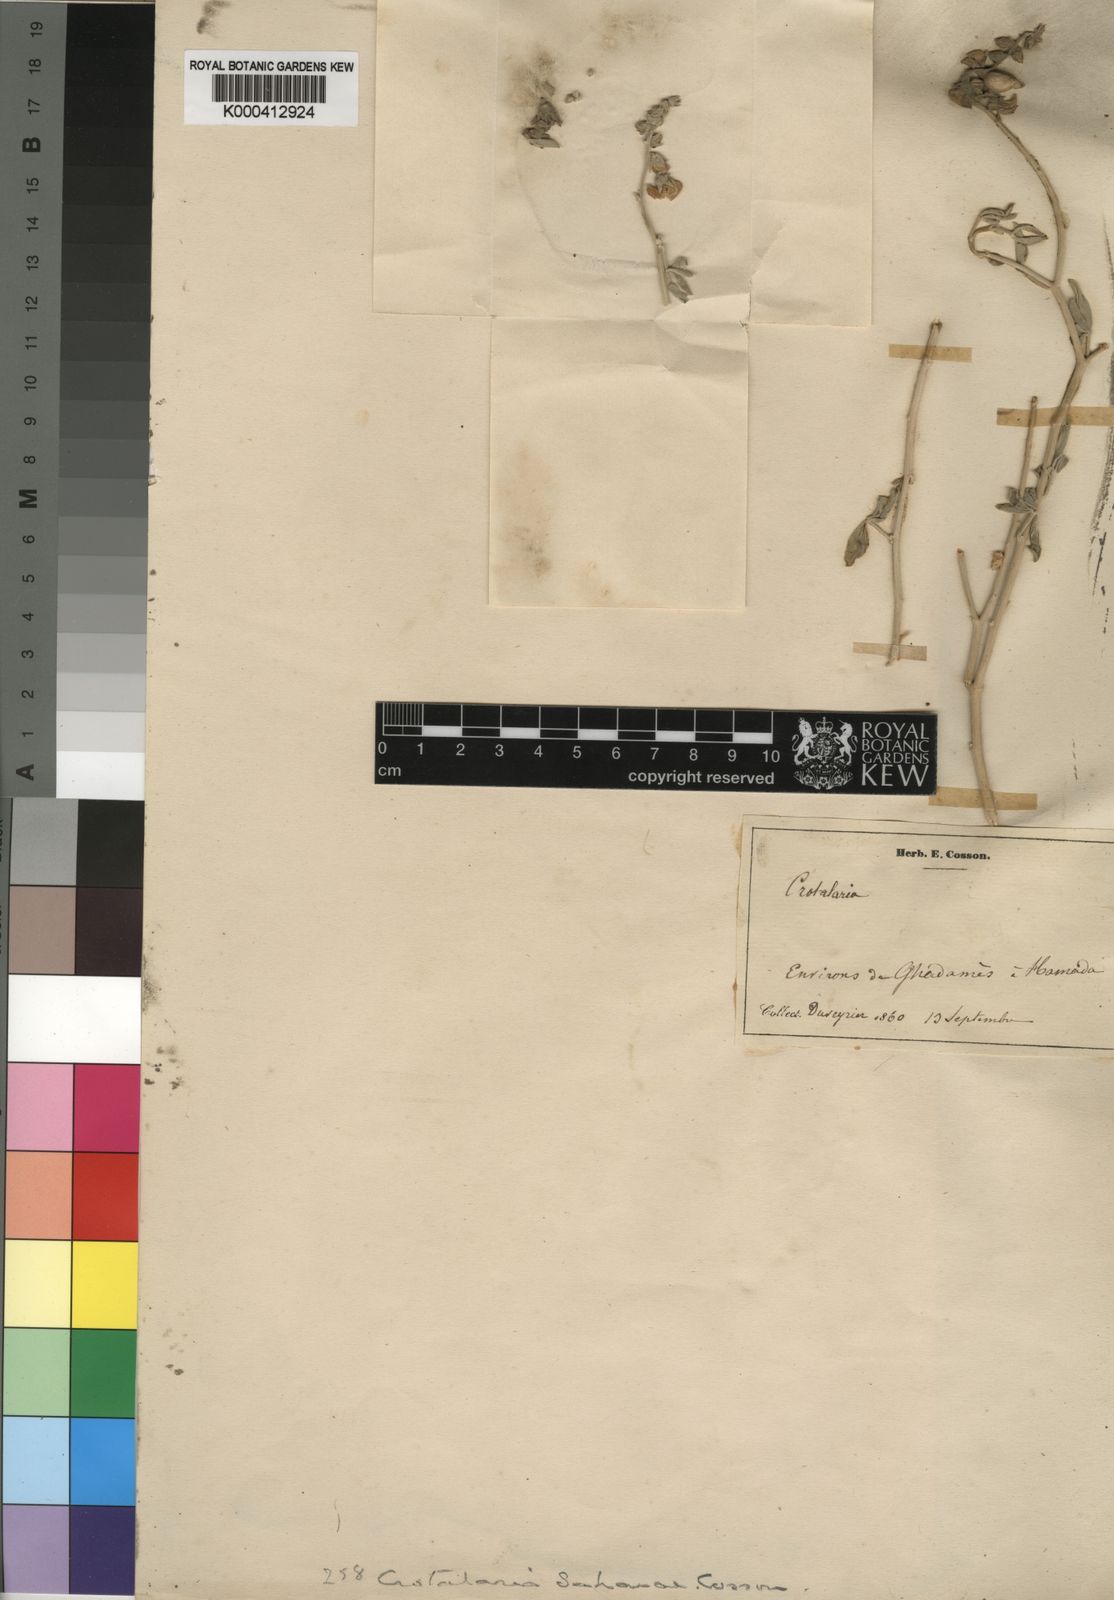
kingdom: Plantae
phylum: Tracheophyta
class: Magnoliopsida
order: Fabales
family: Fabaceae
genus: Crotalaria
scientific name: Crotalaria saharae
